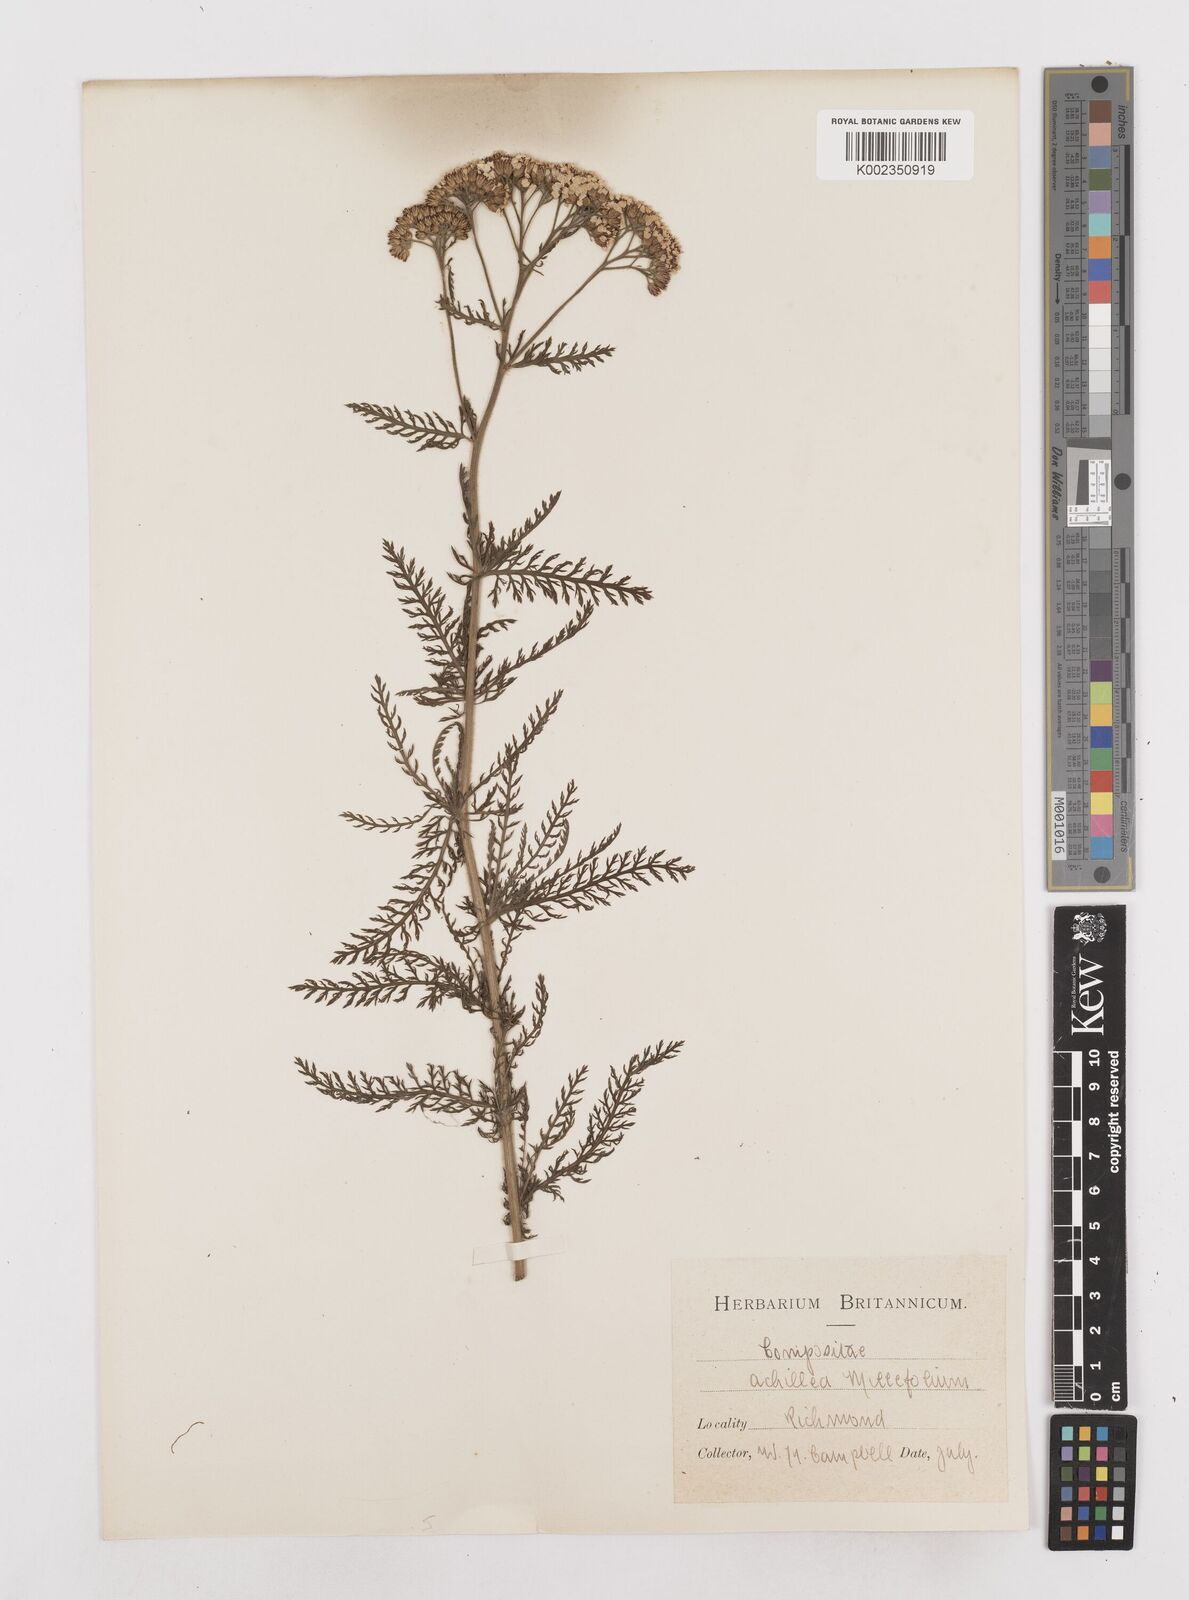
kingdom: Plantae
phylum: Tracheophyta
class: Magnoliopsida
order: Asterales
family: Asteraceae
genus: Achillea
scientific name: Achillea millefolium
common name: Yarrow
